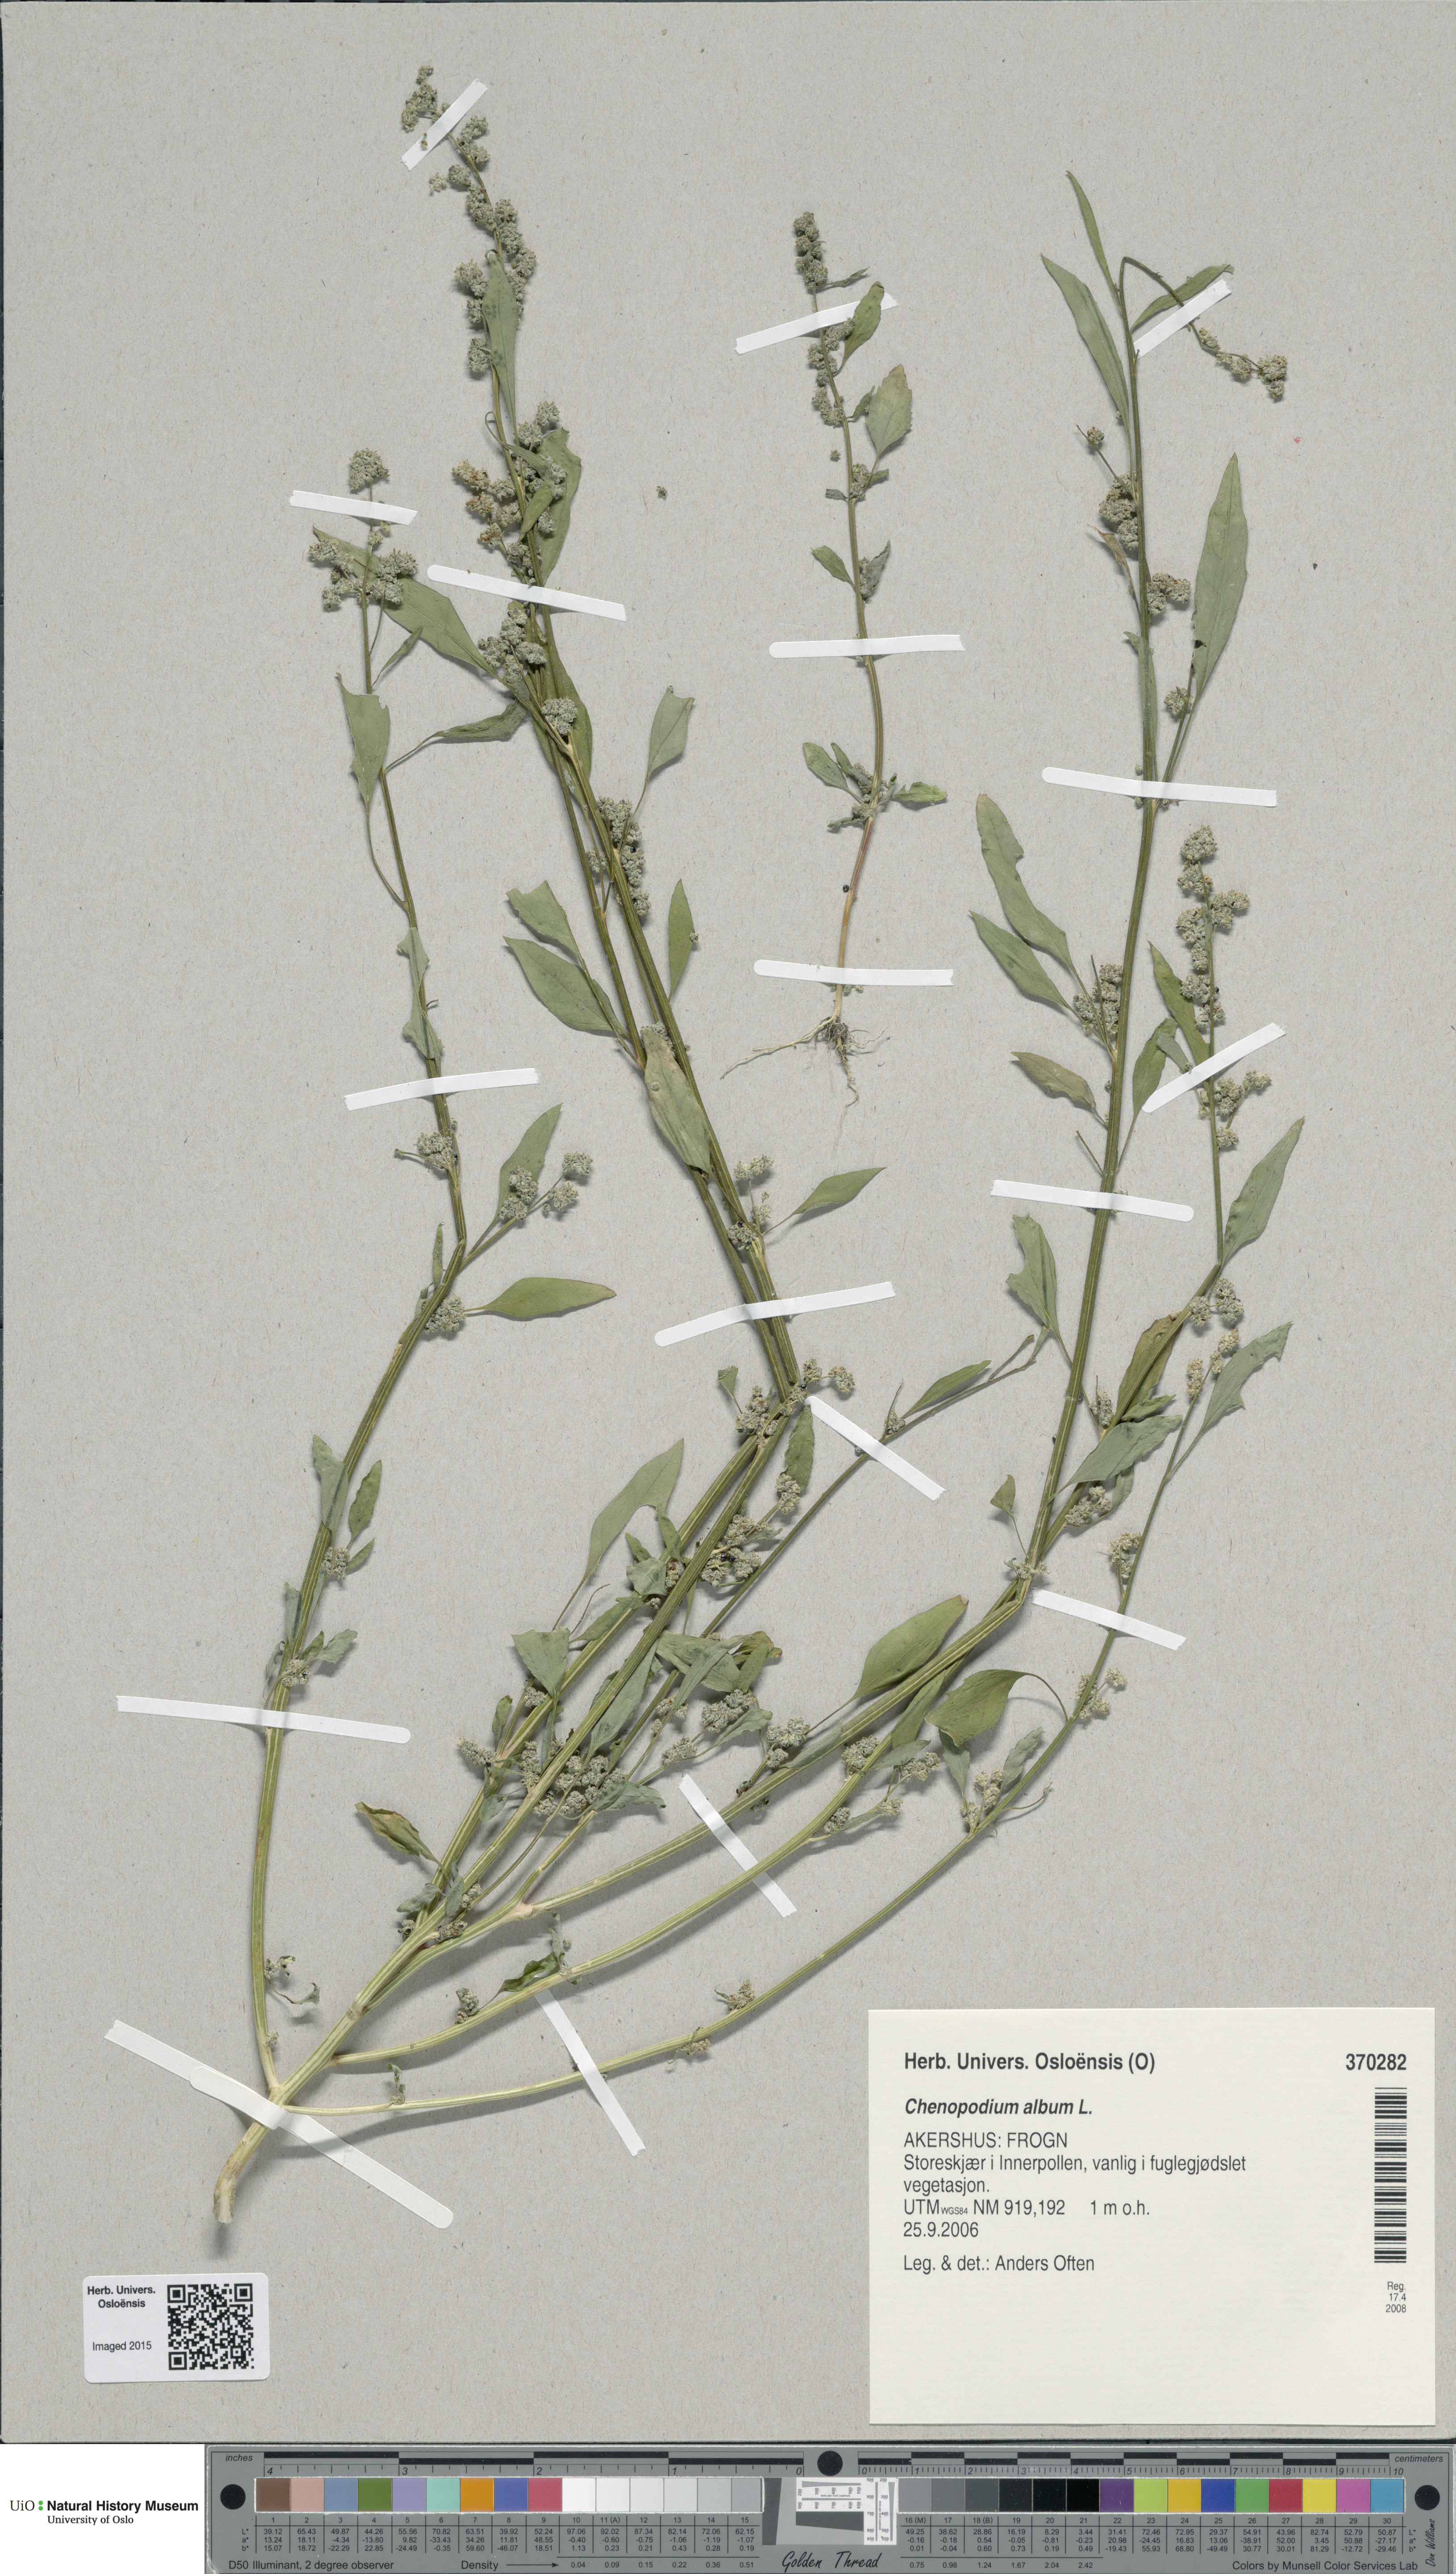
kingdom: Plantae
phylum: Tracheophyta
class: Magnoliopsida
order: Caryophyllales
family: Amaranthaceae
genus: Chenopodium
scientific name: Chenopodium album
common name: Fat-hen
